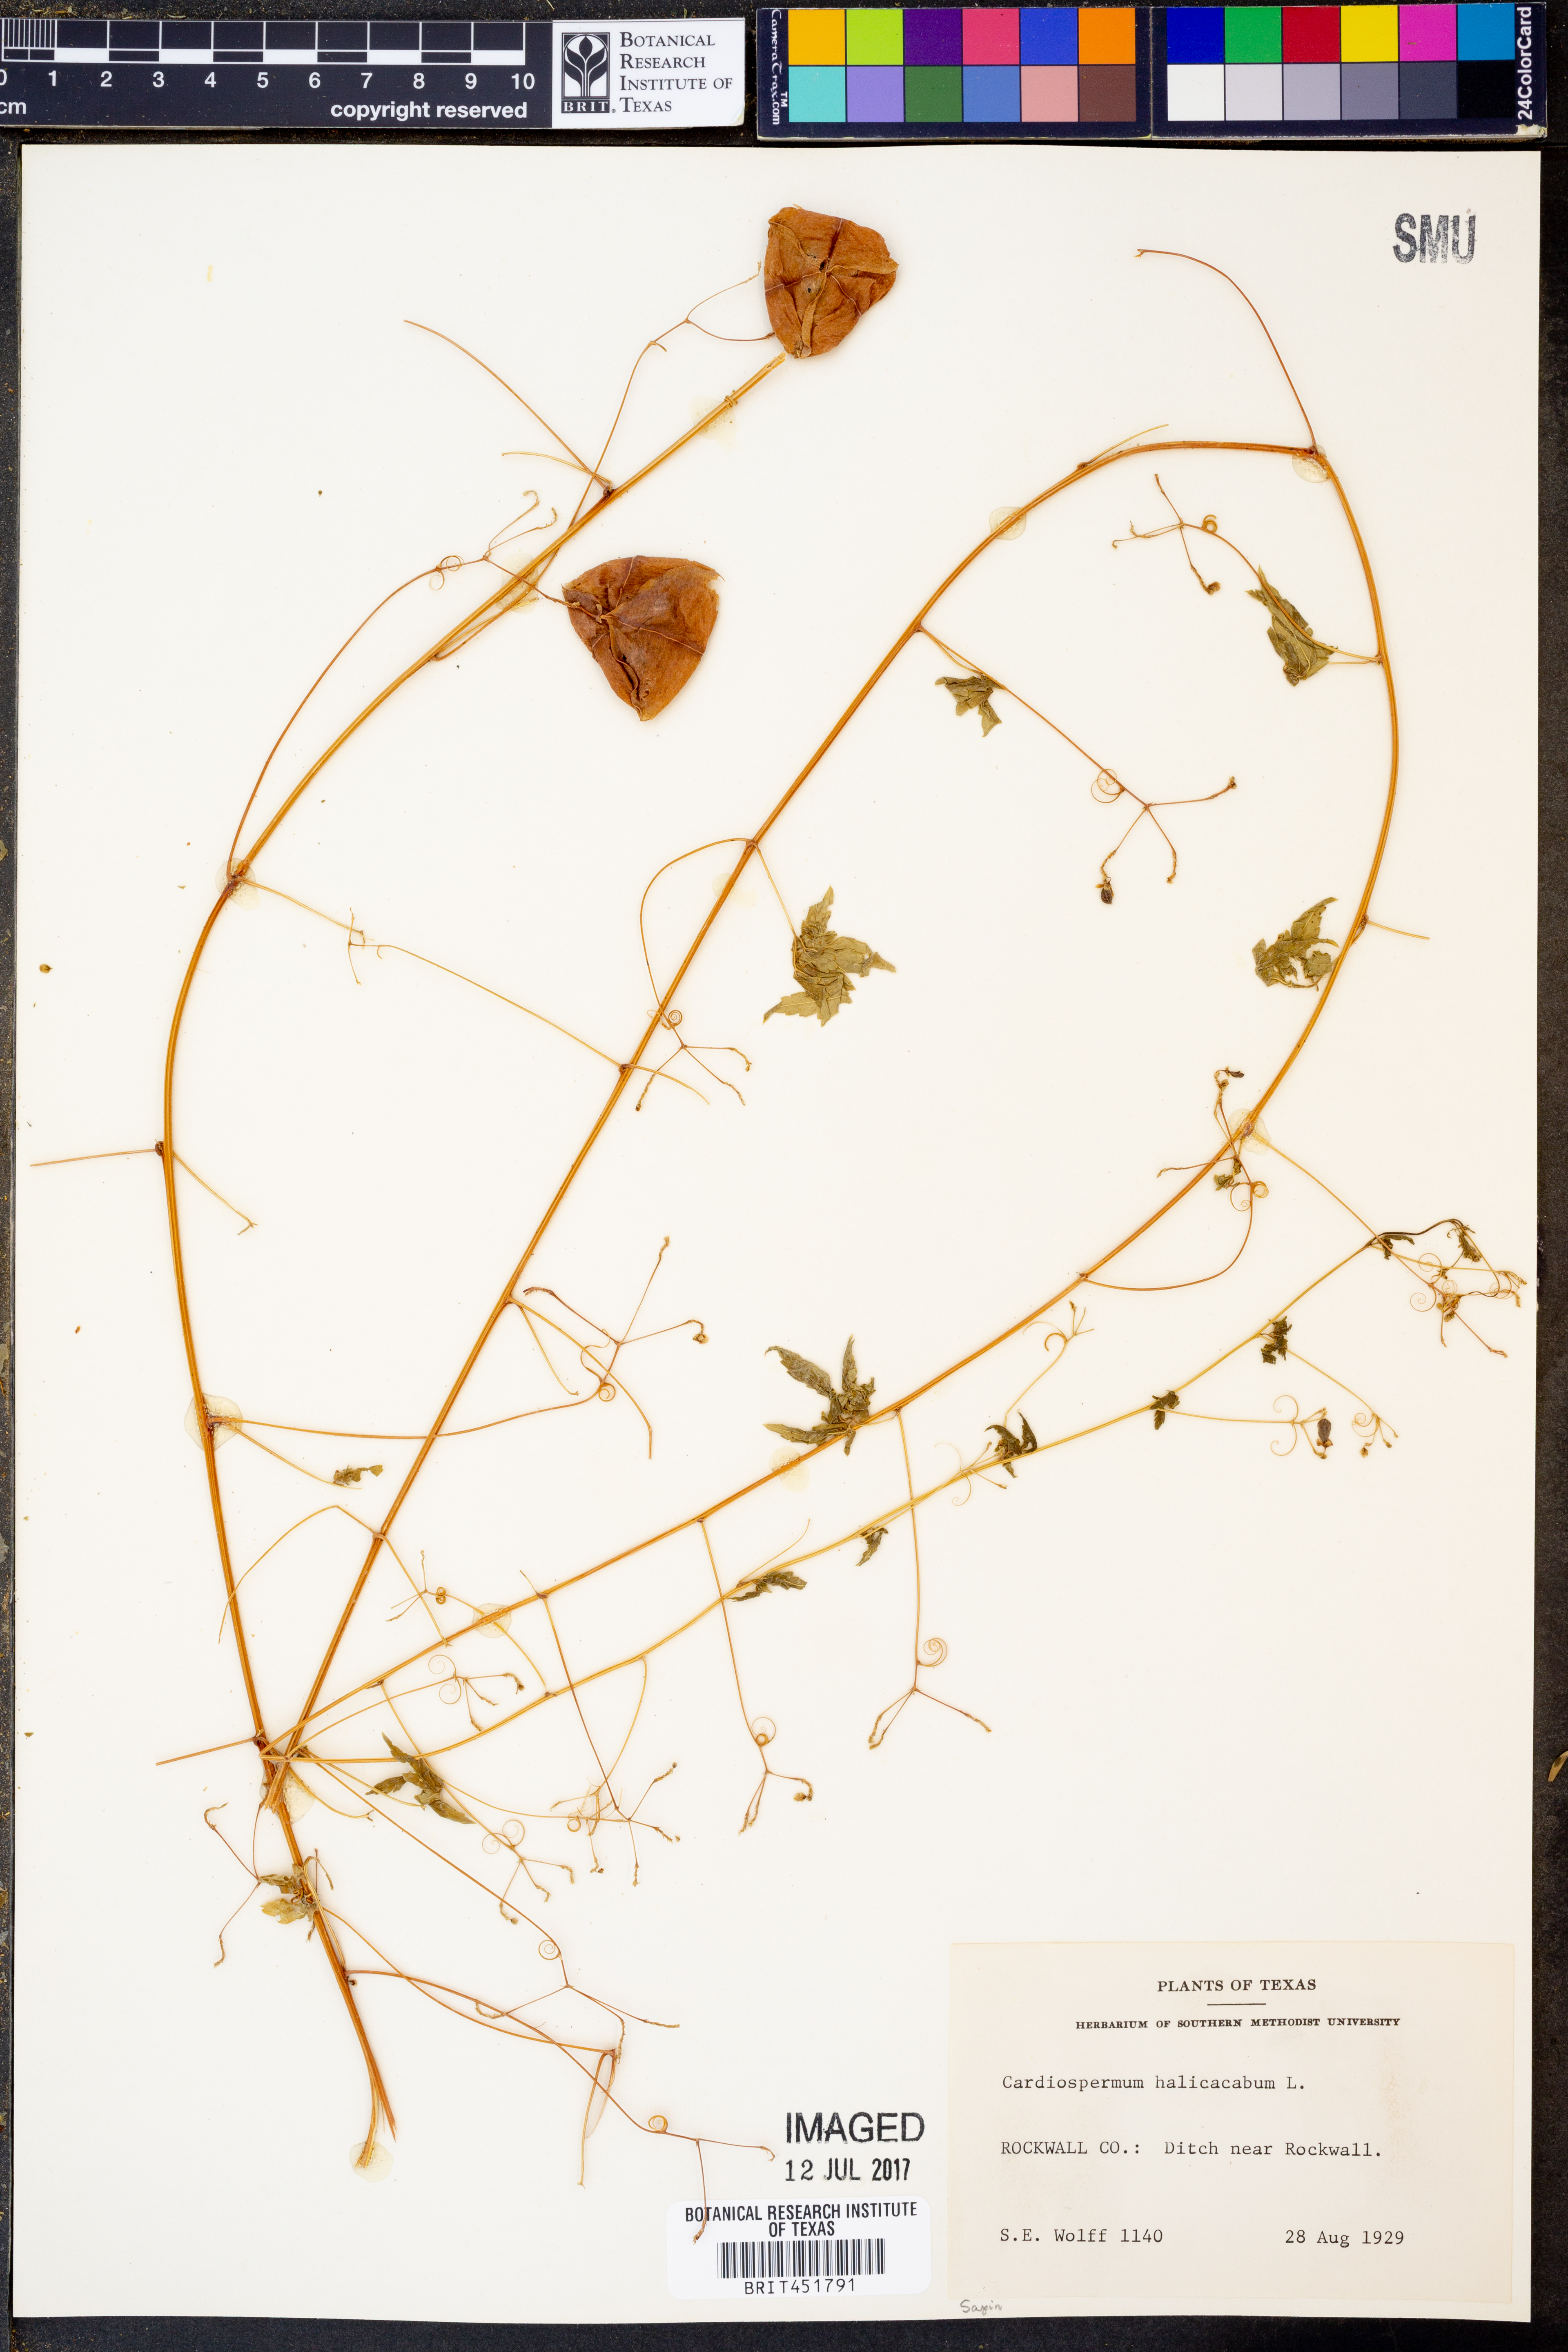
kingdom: Plantae
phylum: Tracheophyta
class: Magnoliopsida
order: Sapindales
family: Sapindaceae
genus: Cardiospermum
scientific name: Cardiospermum halicacabum
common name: Balloon vine
